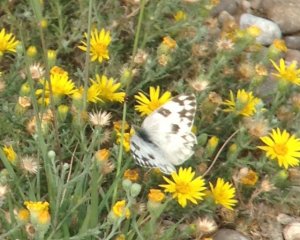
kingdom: Animalia
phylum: Arthropoda
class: Insecta
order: Lepidoptera
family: Pieridae
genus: Pontia
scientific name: Pontia protodice
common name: Checkered White
